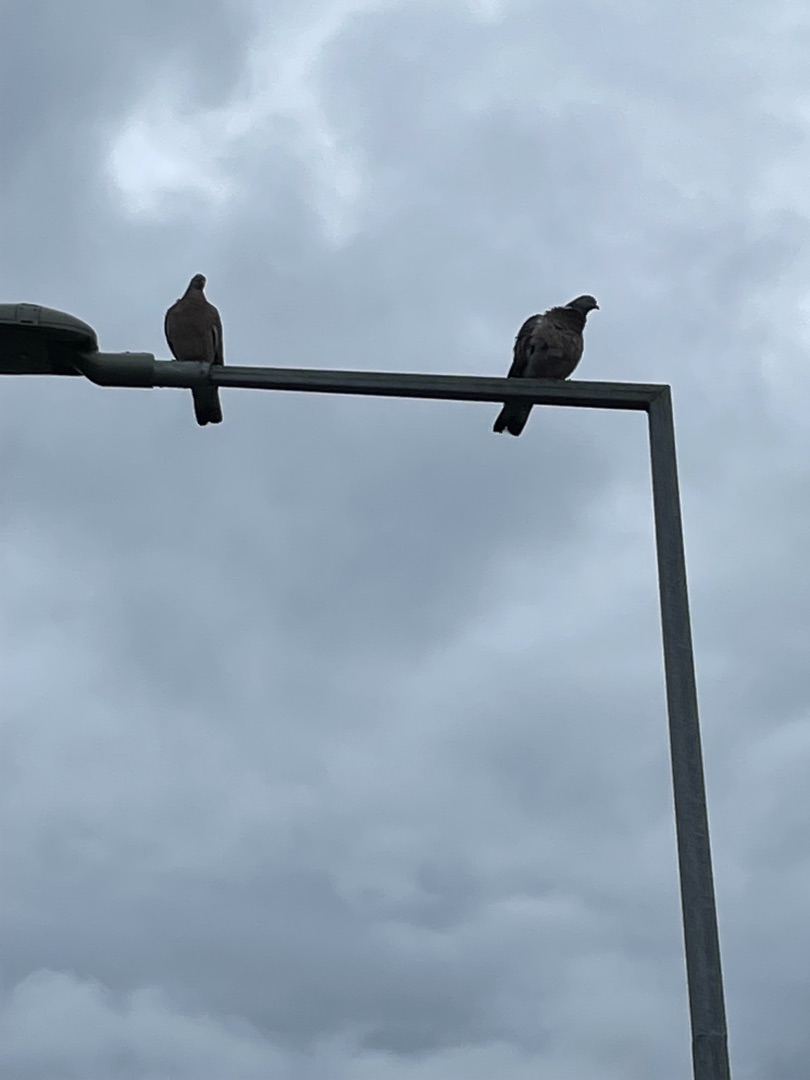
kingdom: Animalia
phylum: Chordata
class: Aves
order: Columbiformes
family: Columbidae
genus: Columba
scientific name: Columba palumbus
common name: Ringdue
